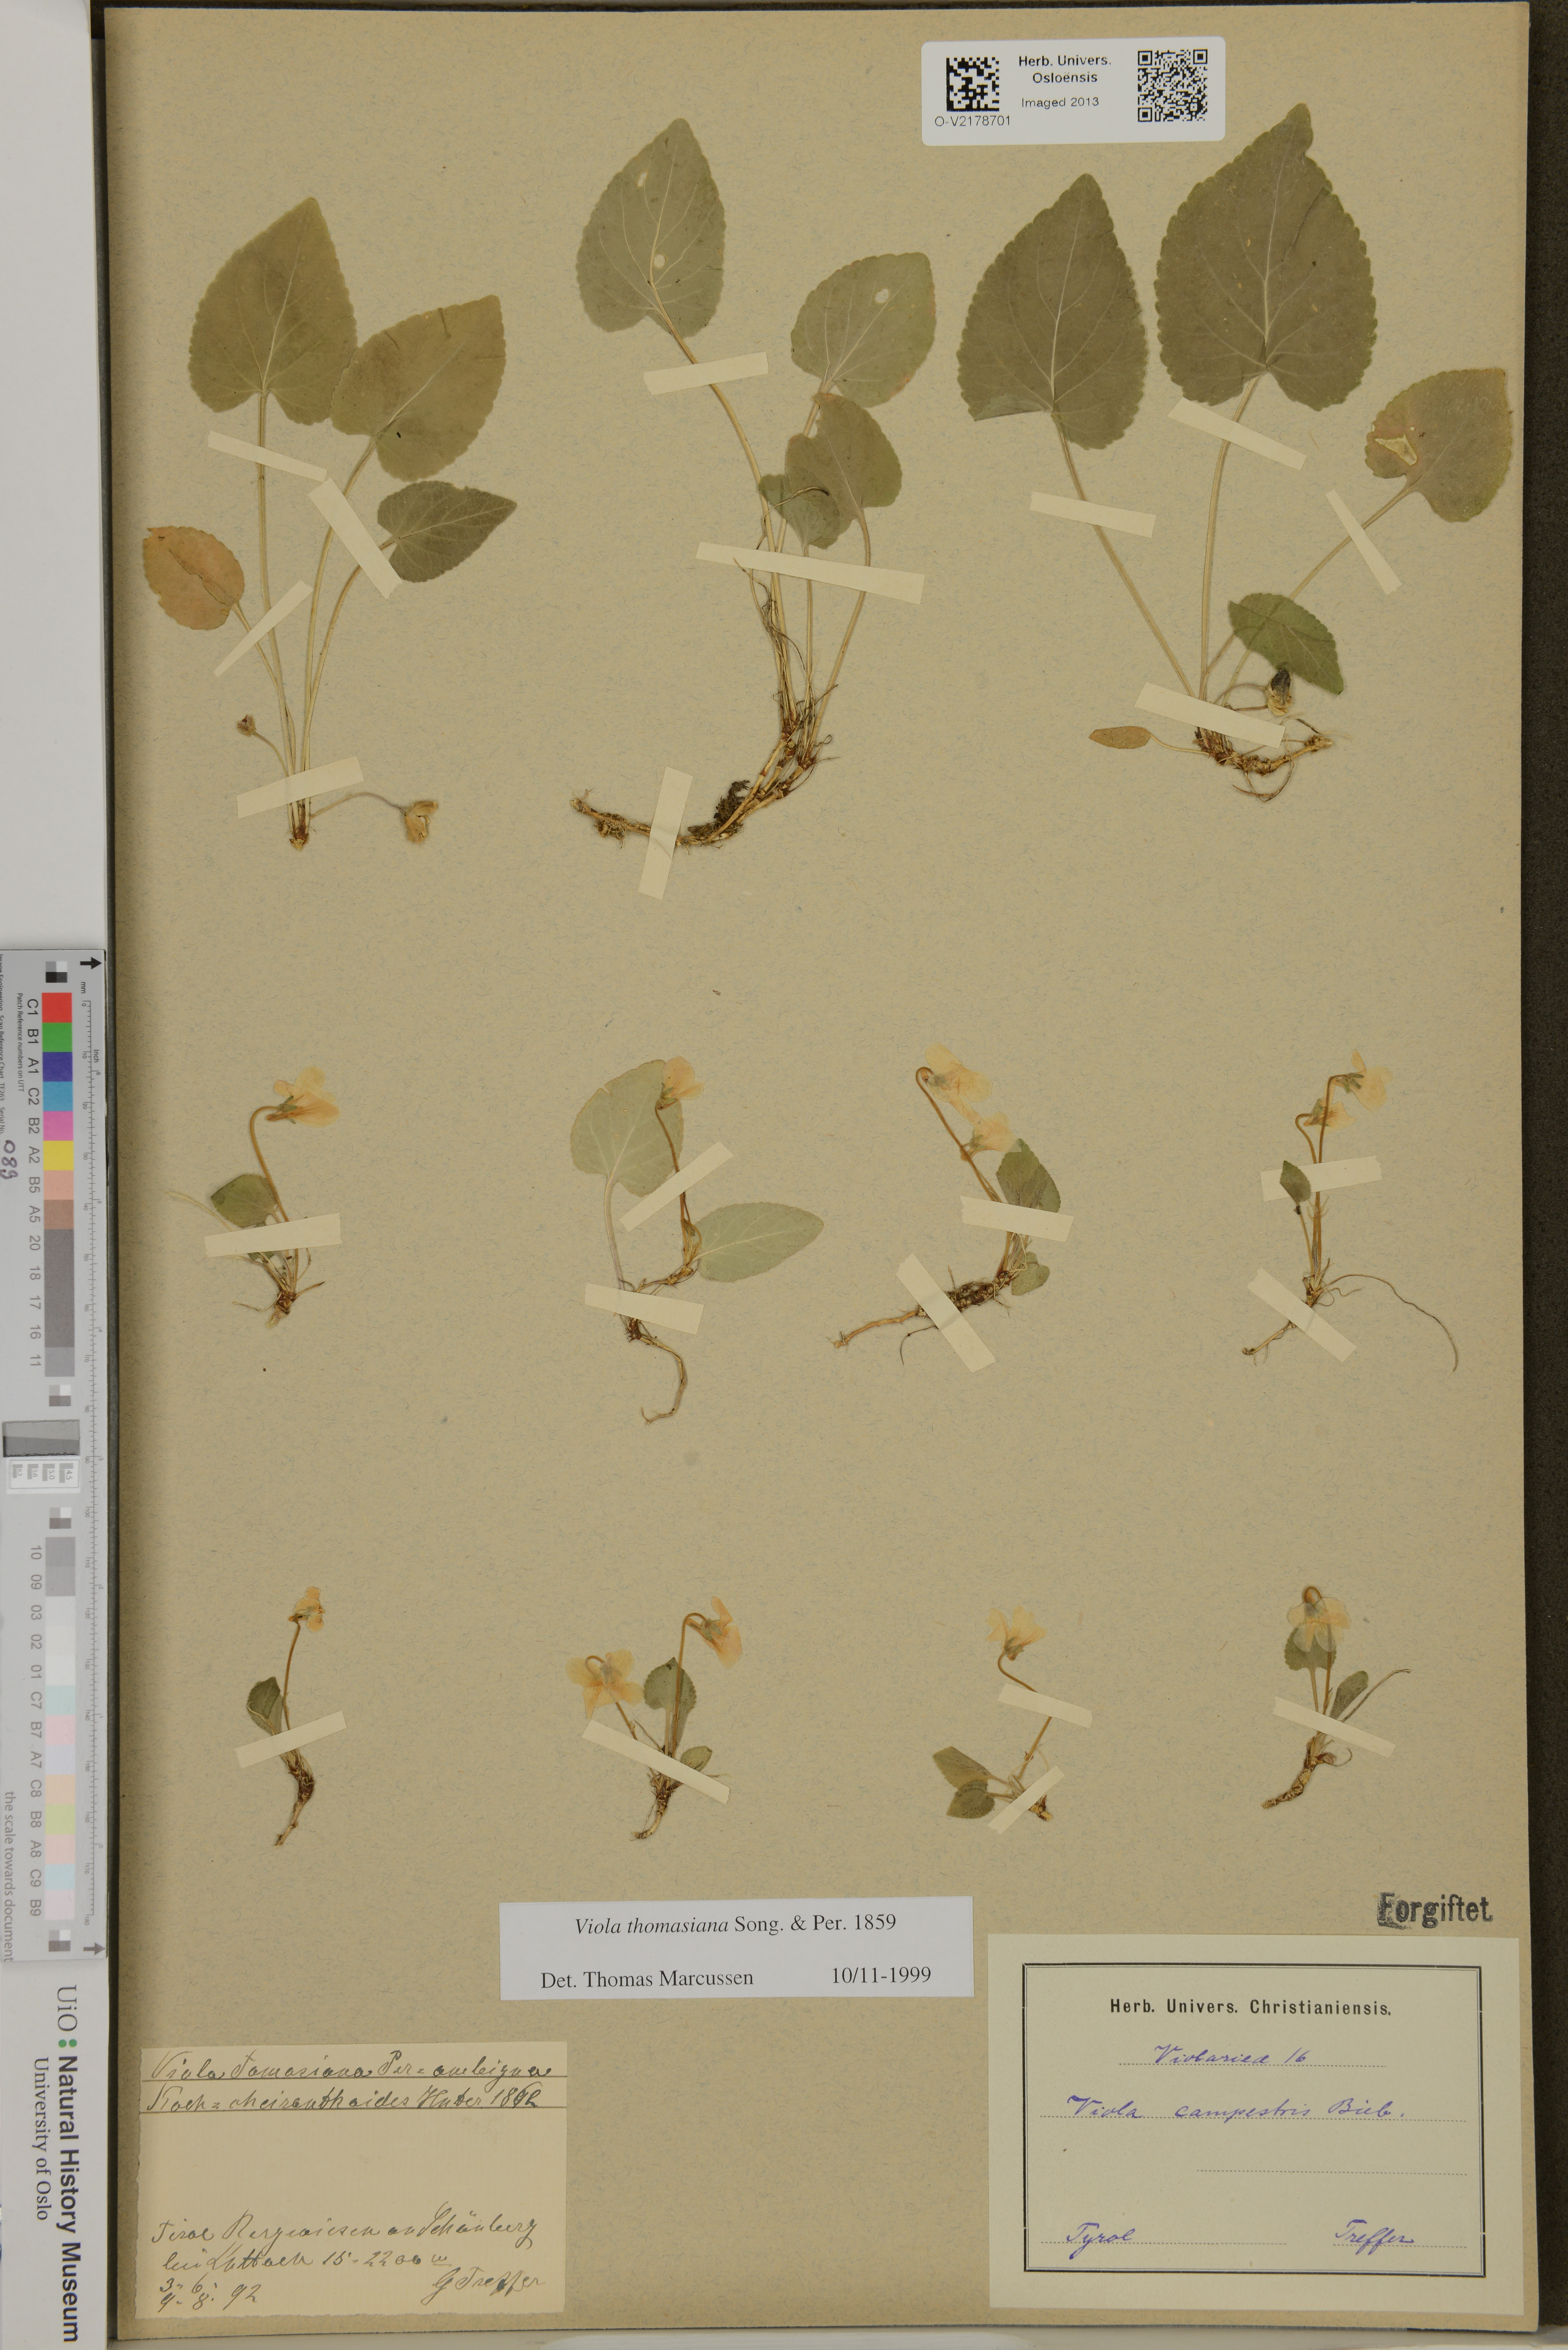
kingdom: Plantae
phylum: Tracheophyta
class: Magnoliopsida
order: Malpighiales
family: Violaceae
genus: Viola
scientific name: Viola thomasiana
